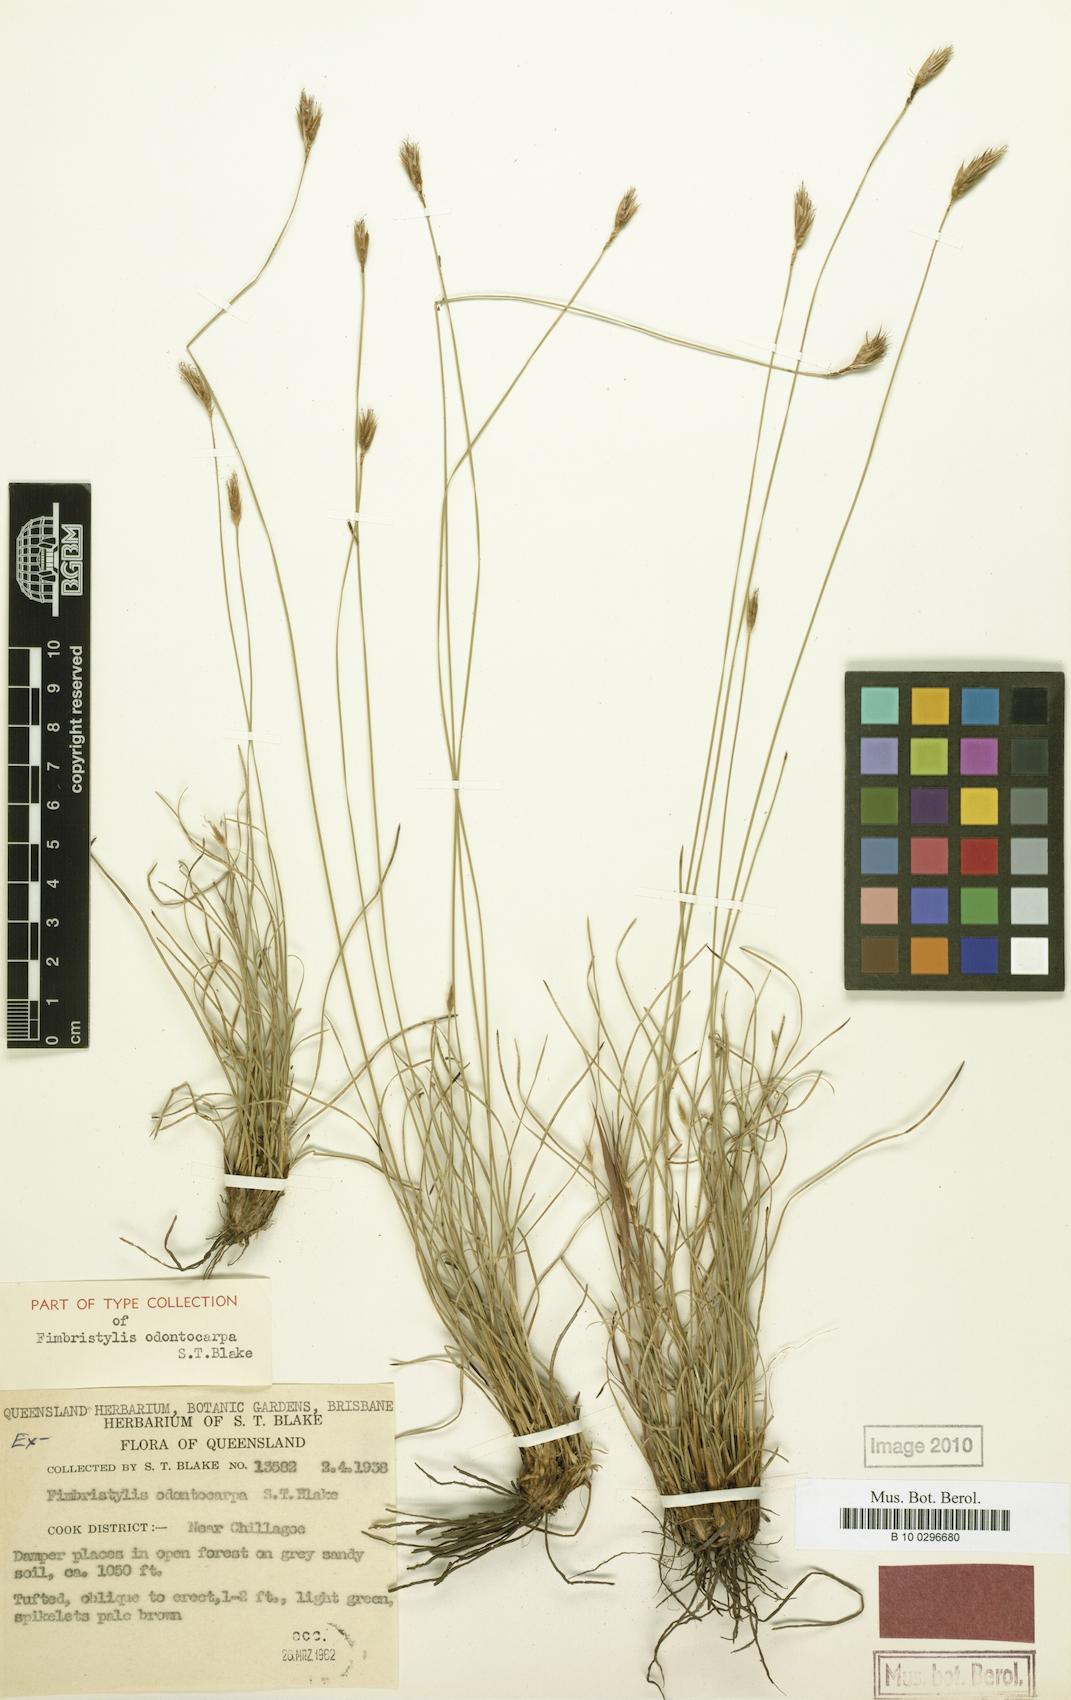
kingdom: Plantae
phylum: Tracheophyta
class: Liliopsida
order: Poales
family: Cyperaceae
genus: Abildgaardia
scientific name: Abildgaardia odontocarpa
